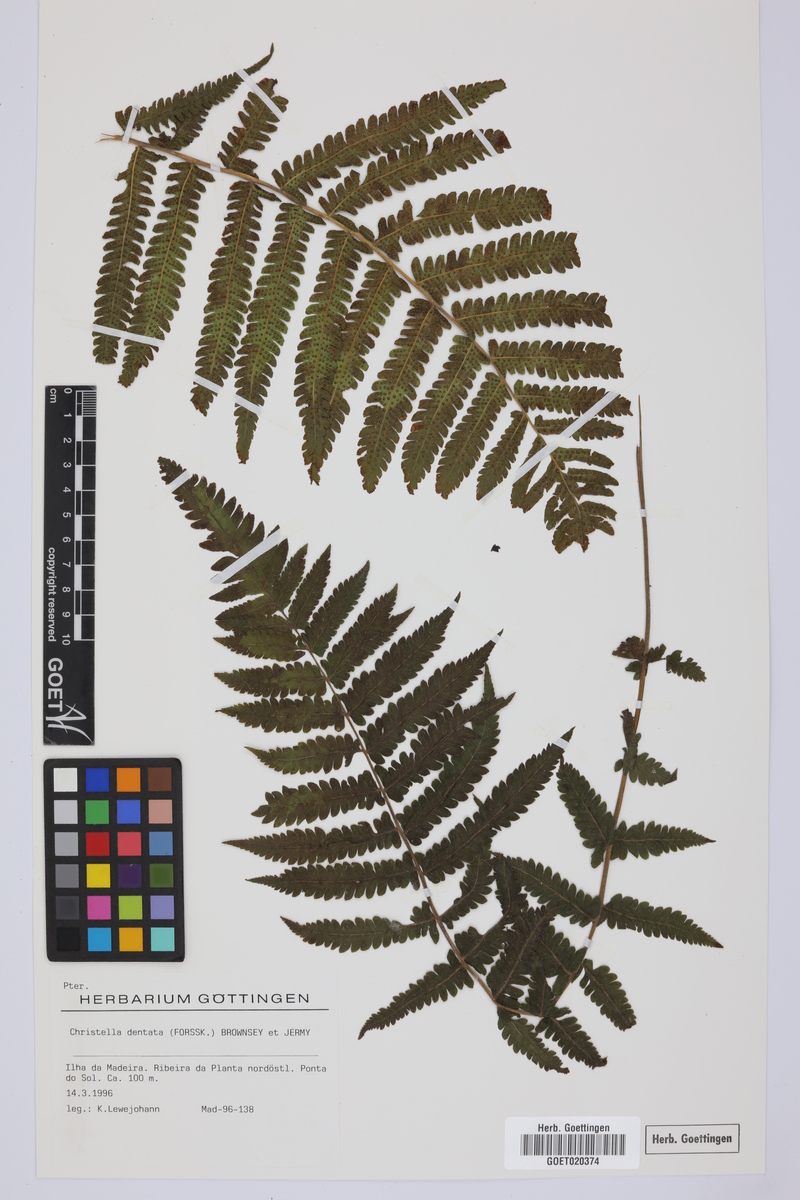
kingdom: Plantae
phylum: Tracheophyta
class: Polypodiopsida
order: Polypodiales
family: Thelypteridaceae
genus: Christella
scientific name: Christella dentata
